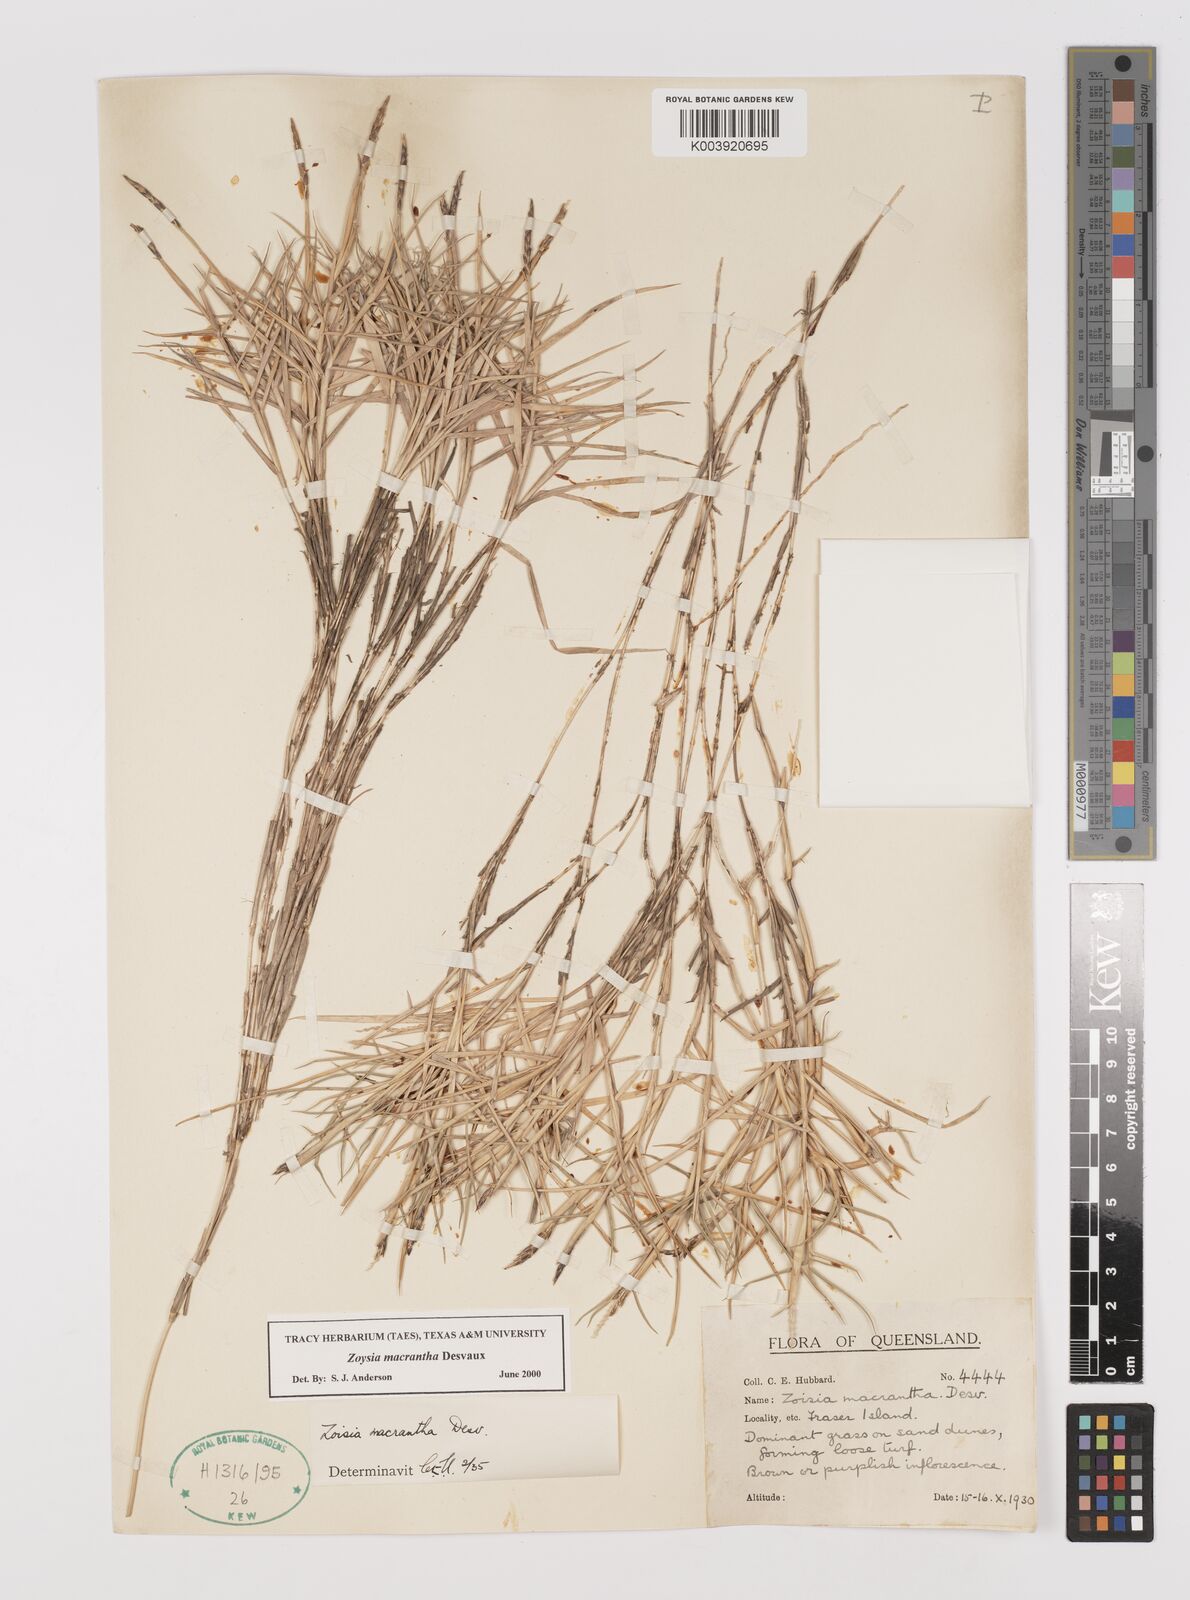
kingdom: Plantae
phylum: Tracheophyta
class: Liliopsida
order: Poales
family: Poaceae
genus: Zoysia
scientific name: Zoysia macrantha
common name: Korean lawn grass
